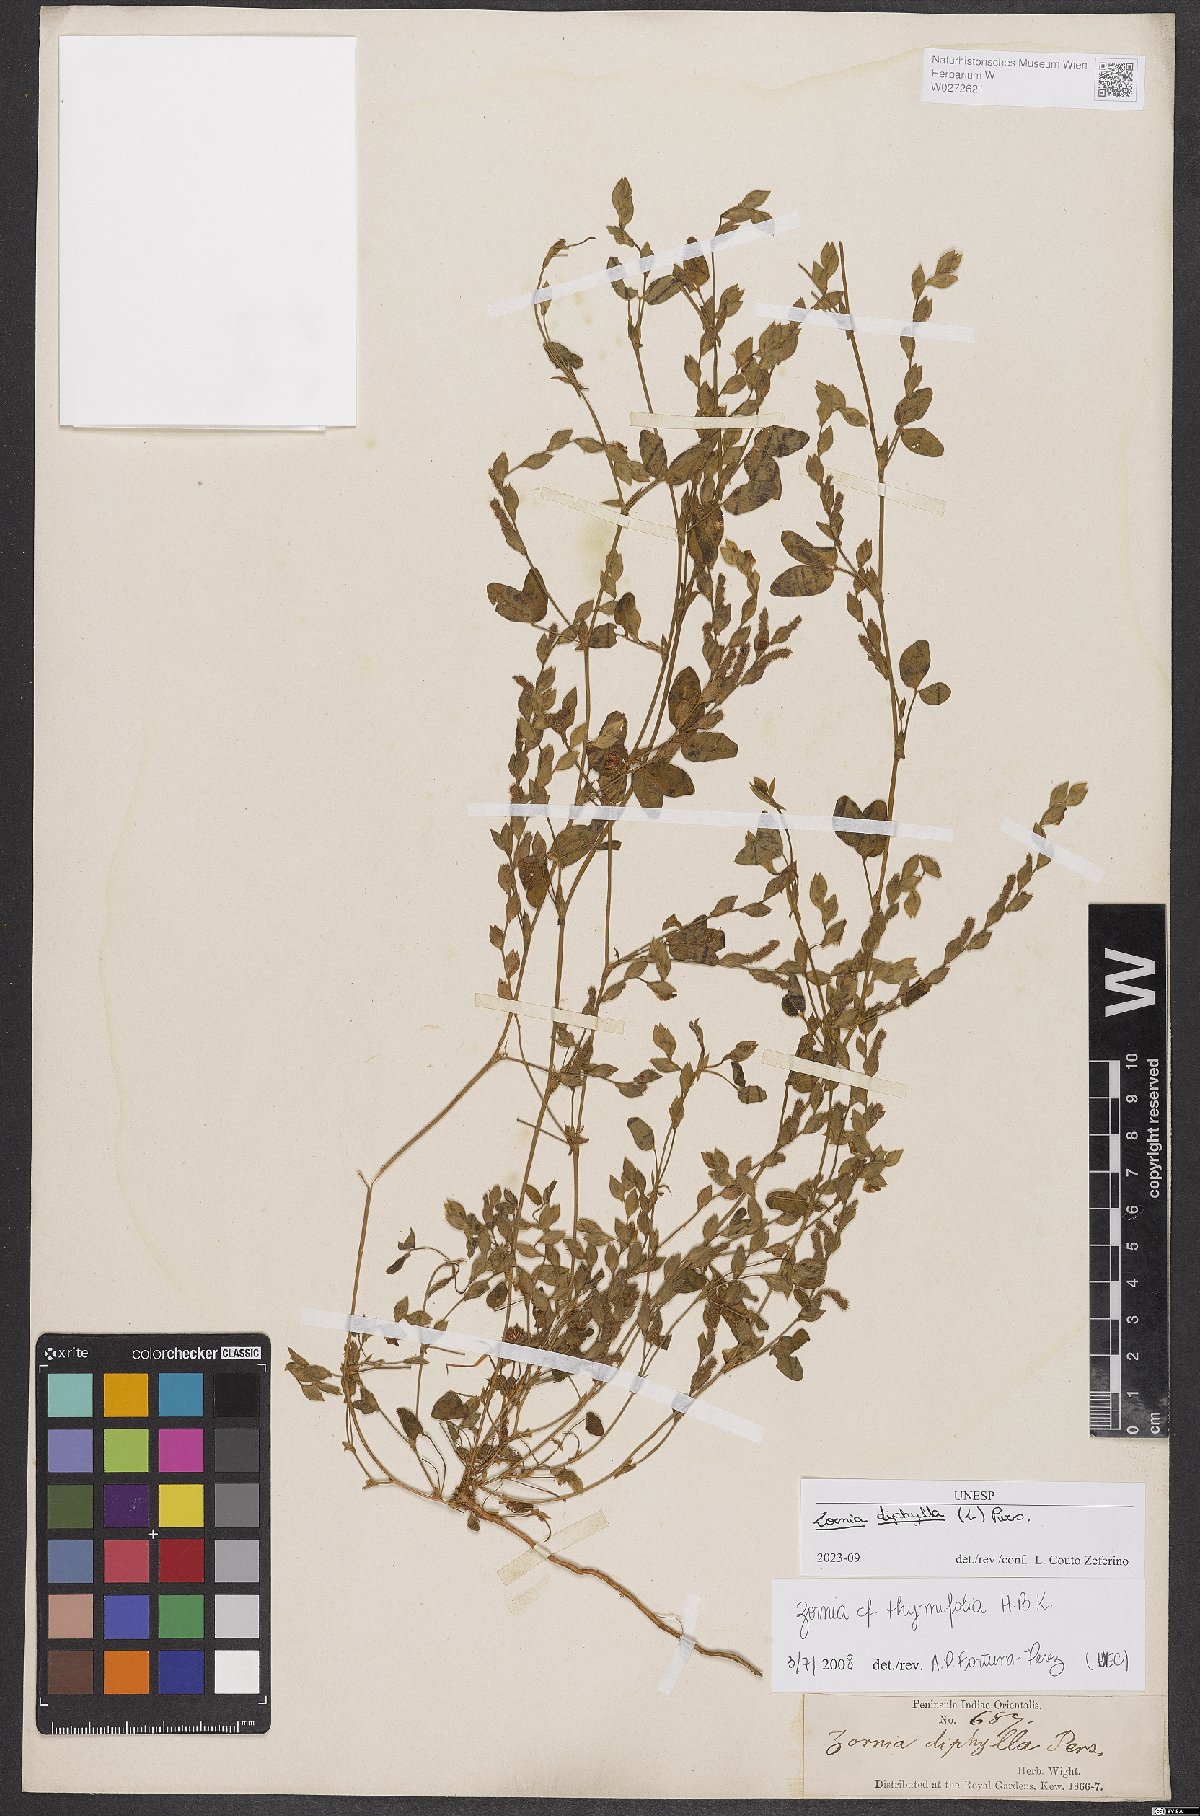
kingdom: Plantae
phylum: Tracheophyta
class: Magnoliopsida
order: Fabales
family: Fabaceae
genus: Zornia
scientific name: Zornia diphylla
